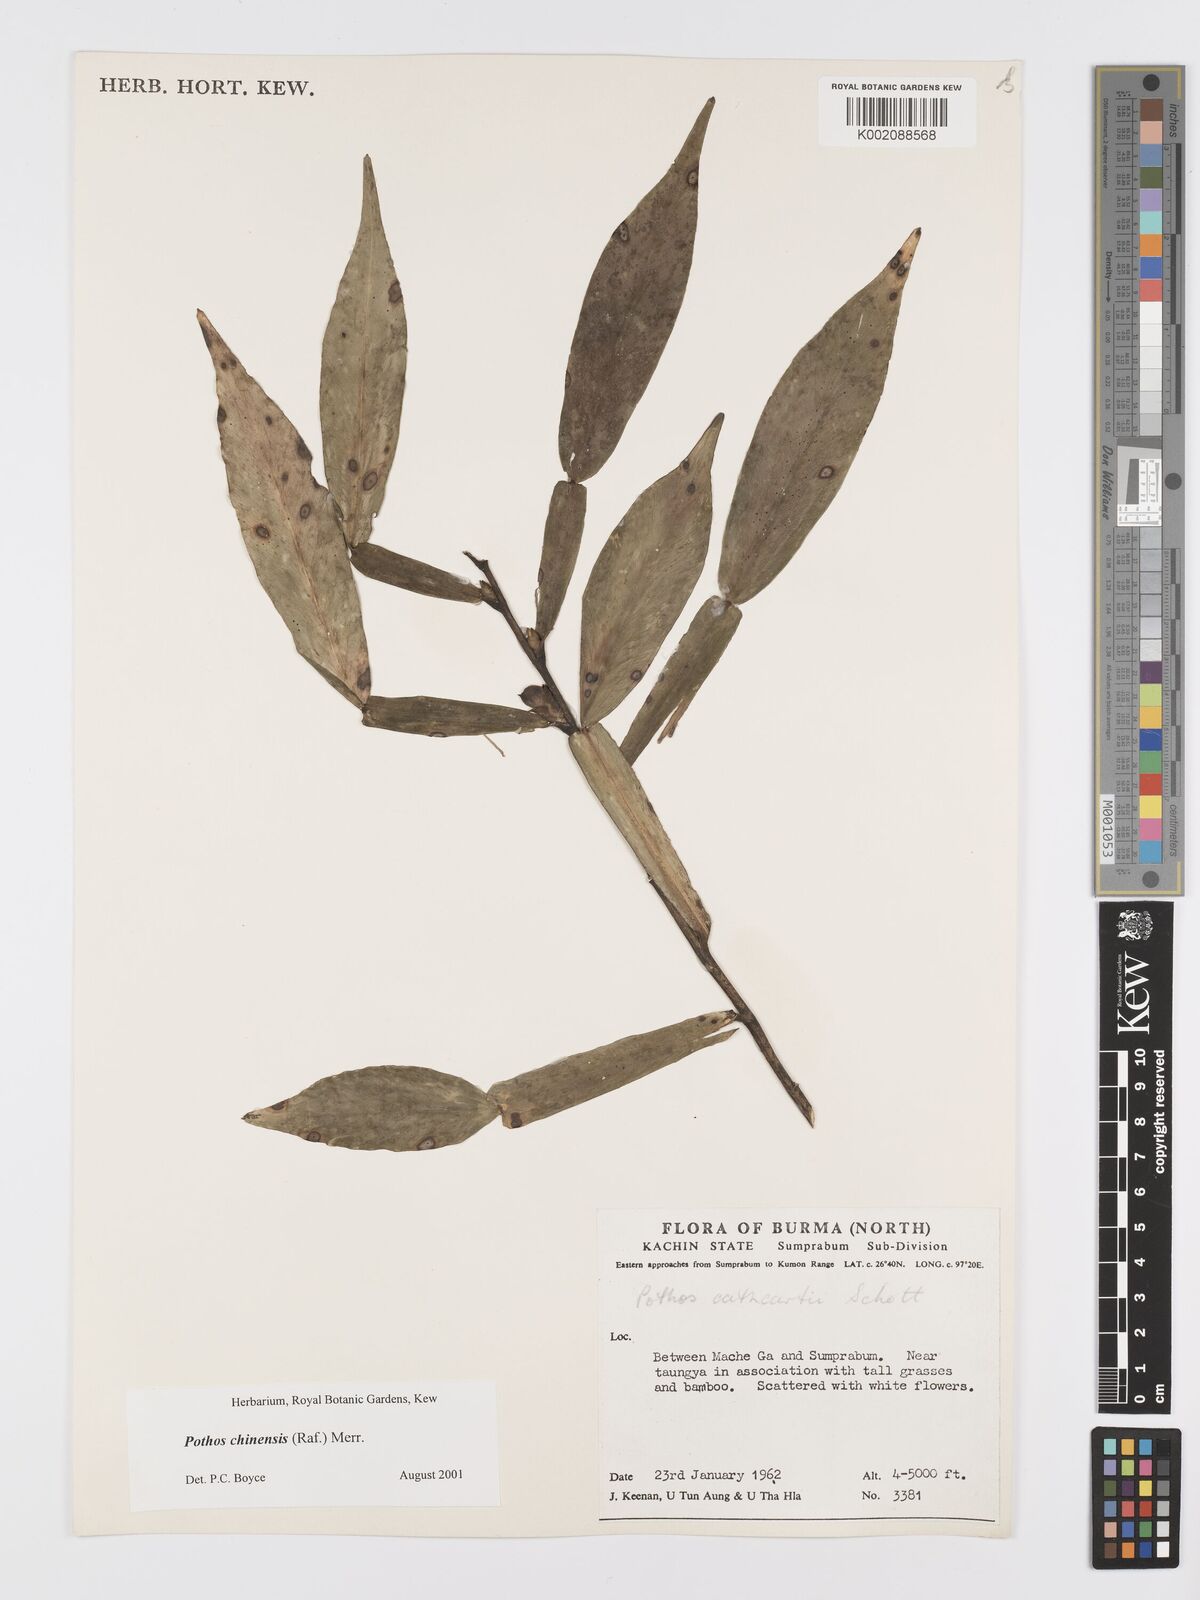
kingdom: Plantae
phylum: Tracheophyta
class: Liliopsida
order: Alismatales
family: Araceae
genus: Pothos
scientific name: Pothos chinensis
